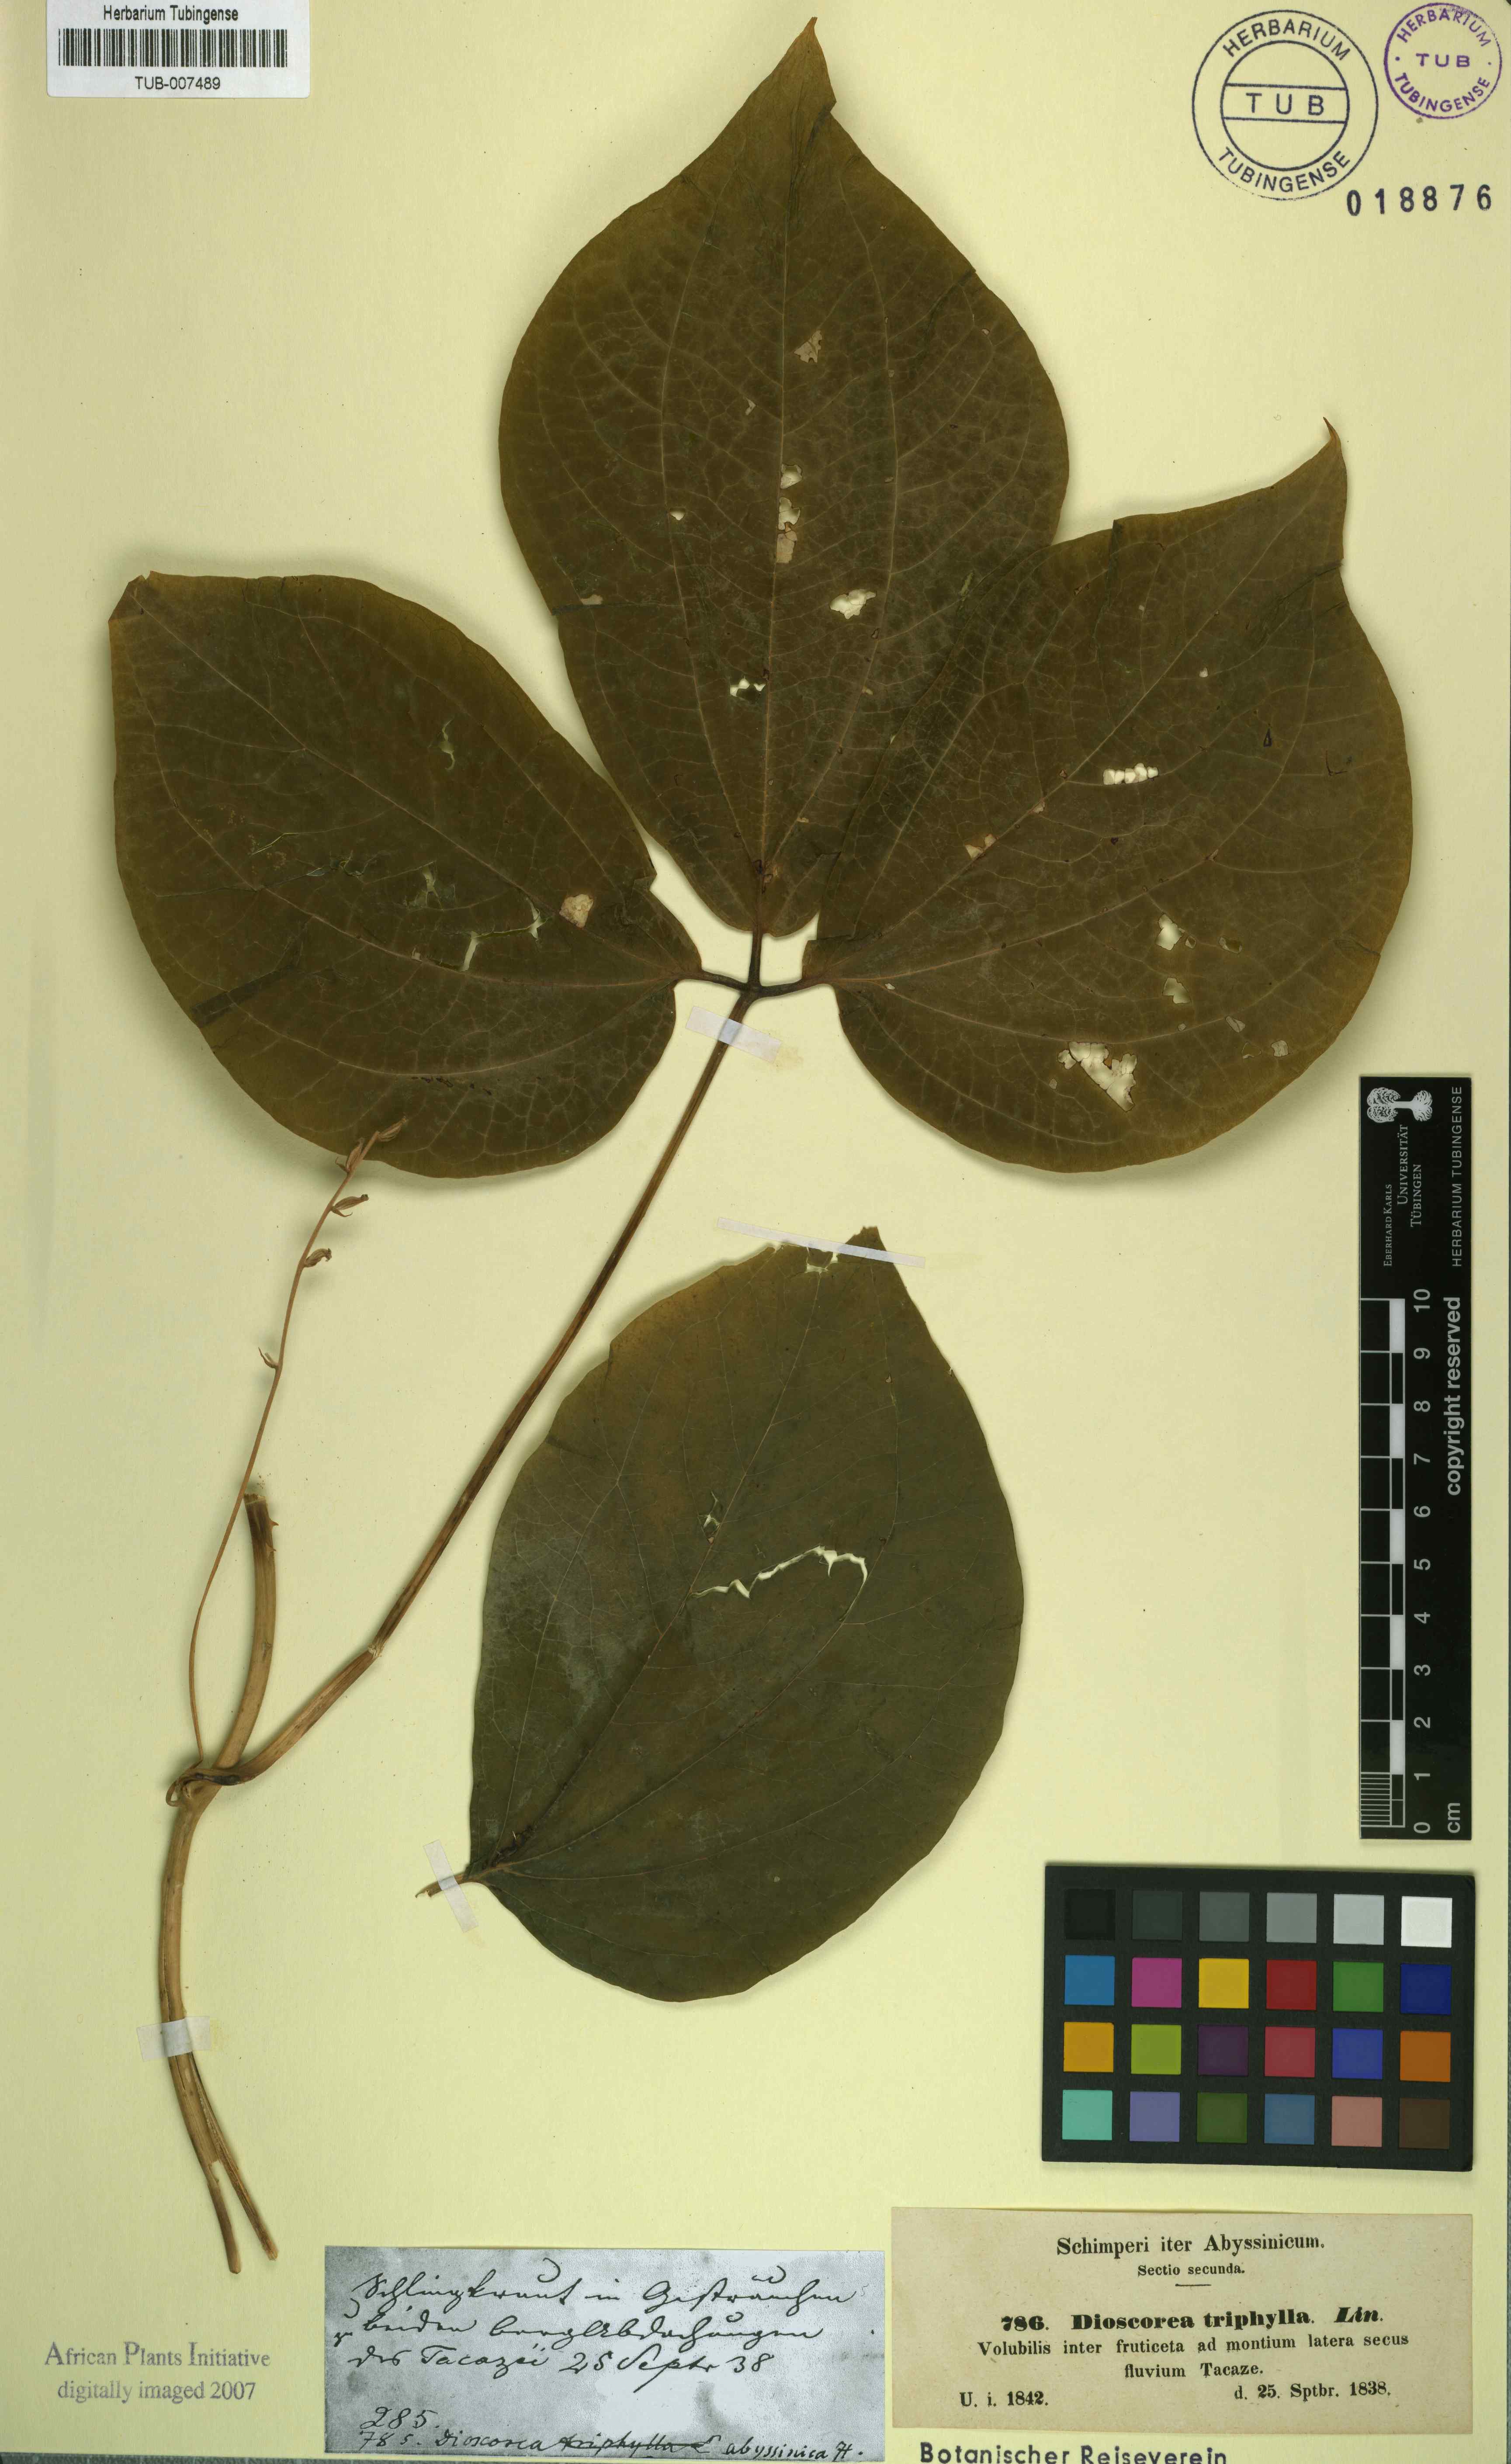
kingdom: Plantae
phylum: Tracheophyta
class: Liliopsida
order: Dioscoreales
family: Dioscoreaceae
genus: Dioscorea
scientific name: Dioscorea pentaphylla
